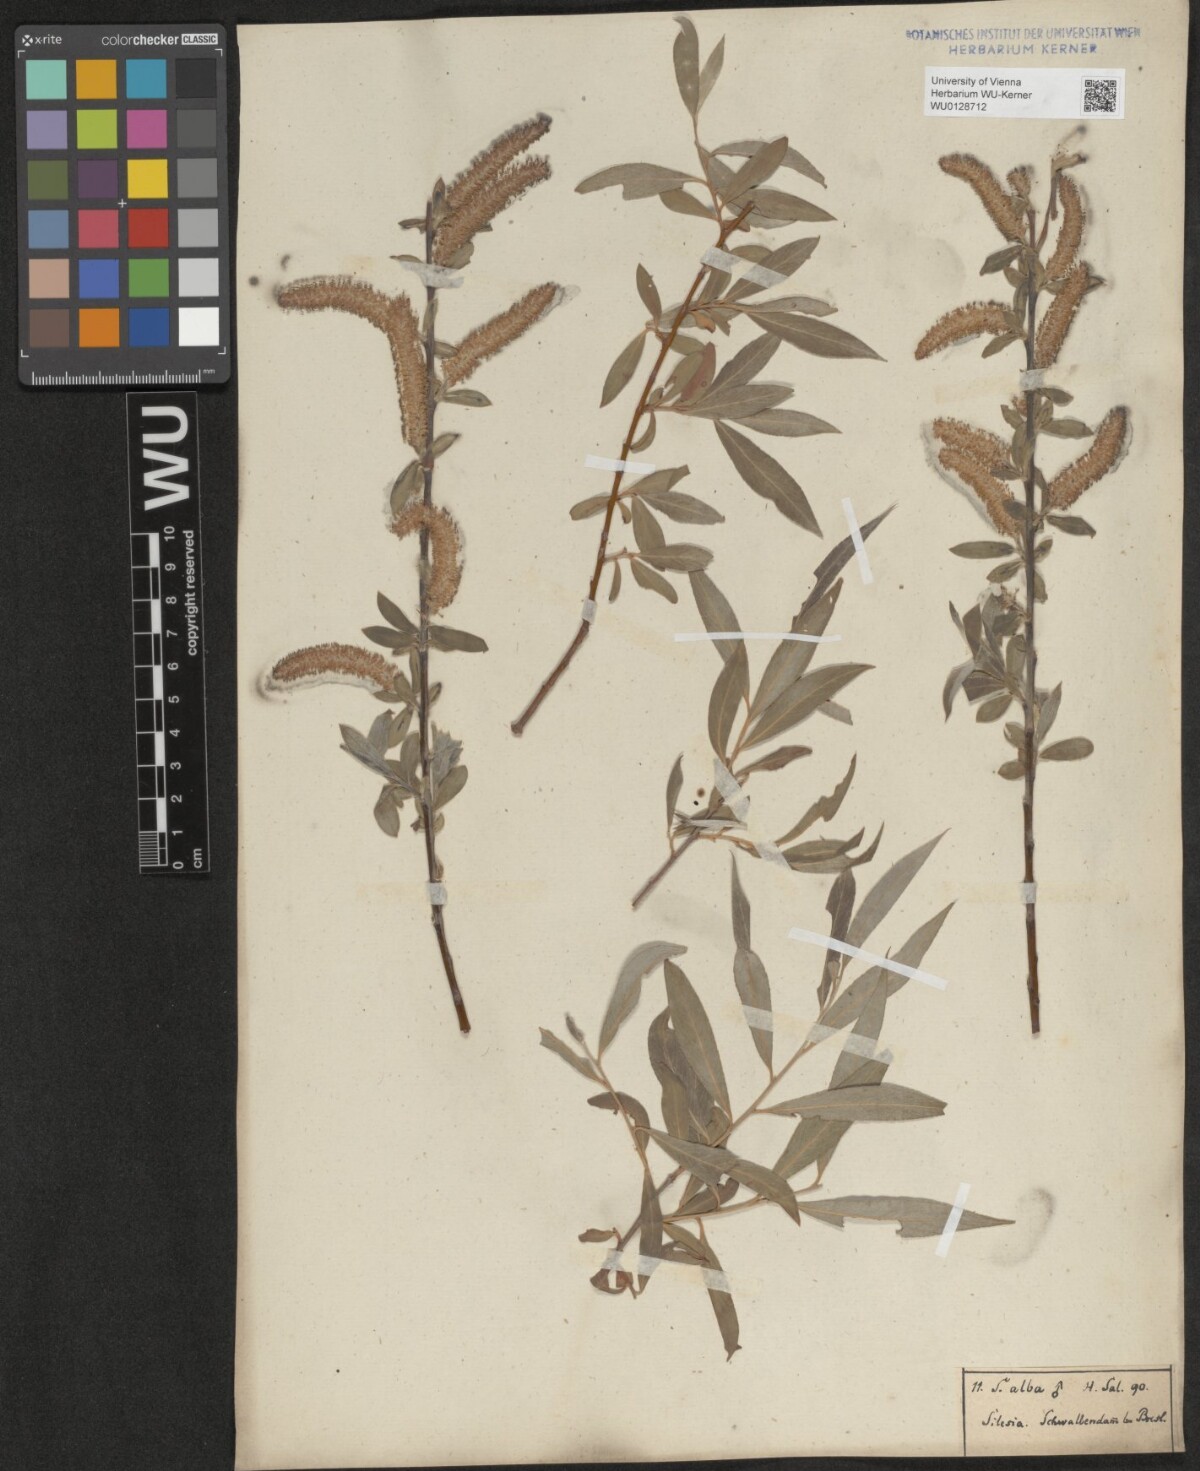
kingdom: Plantae
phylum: Tracheophyta
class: Magnoliopsida
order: Malpighiales
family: Salicaceae
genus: Salix
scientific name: Salix alba
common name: White willow
